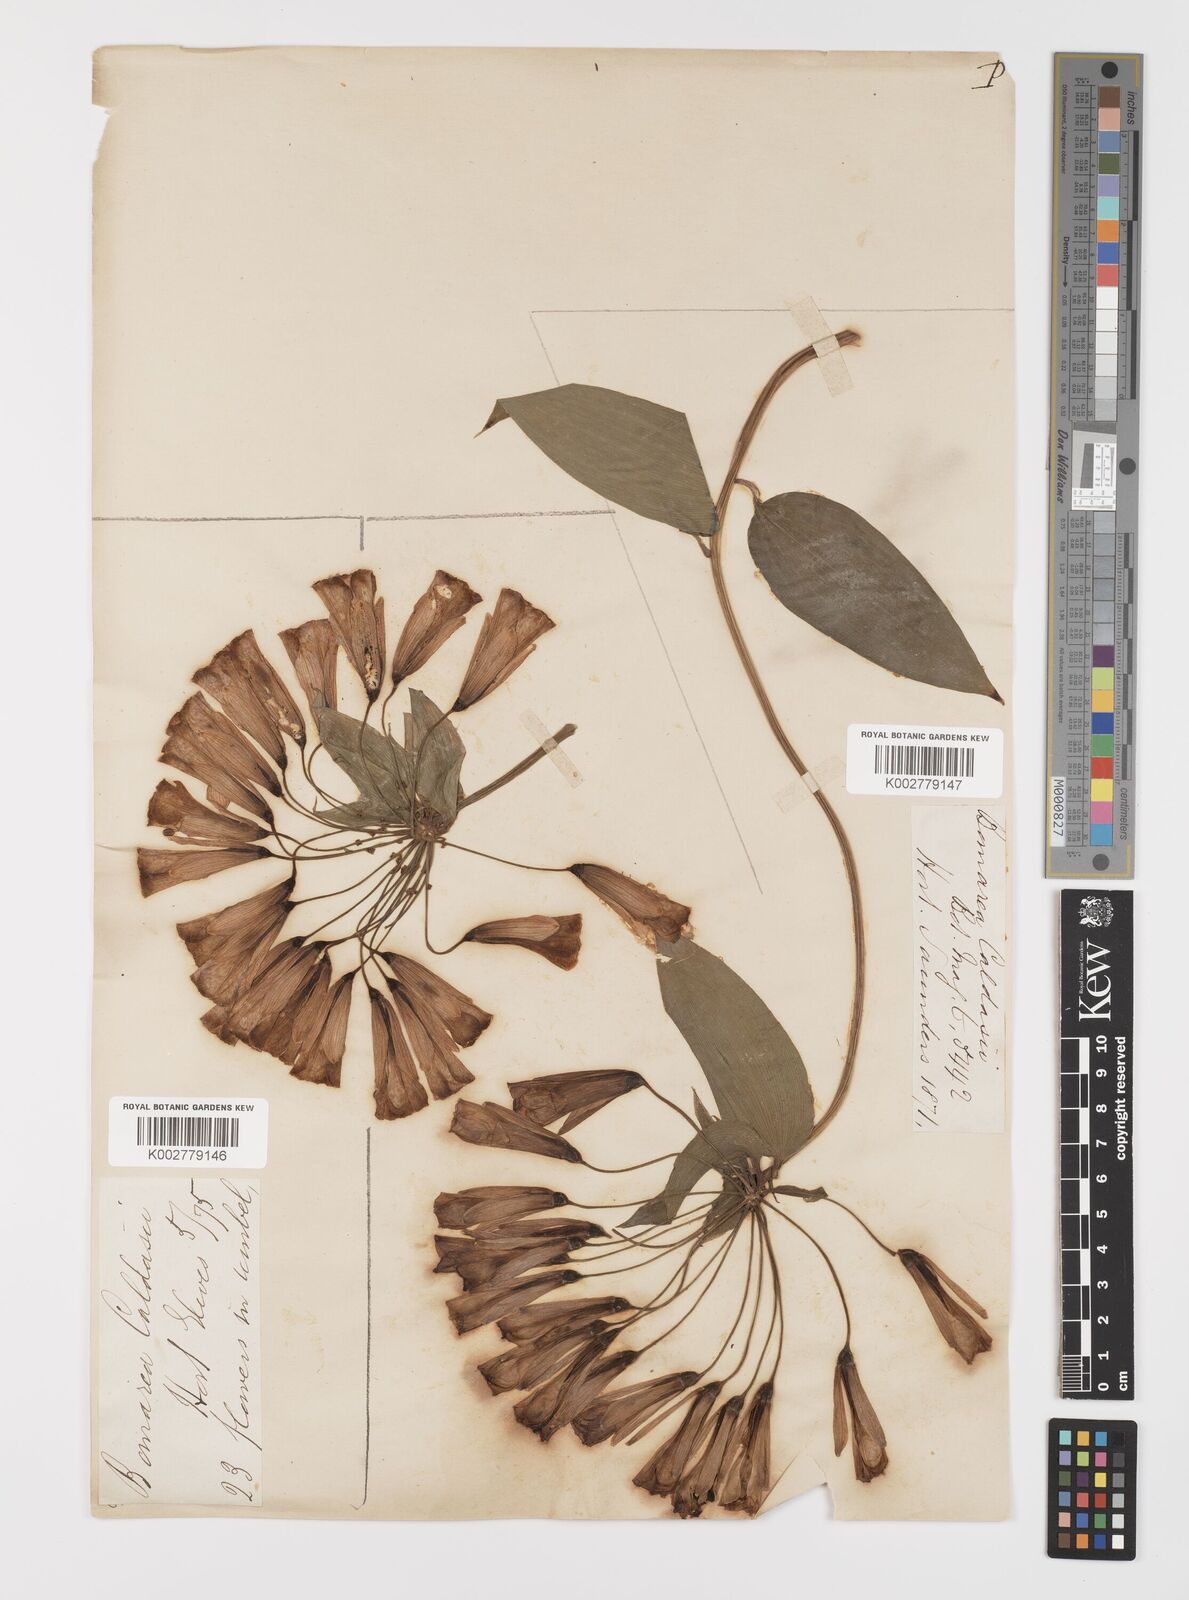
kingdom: Plantae
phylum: Tracheophyta
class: Liliopsida
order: Liliales
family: Alstroemeriaceae
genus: Bomarea
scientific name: Bomarea multiflora
